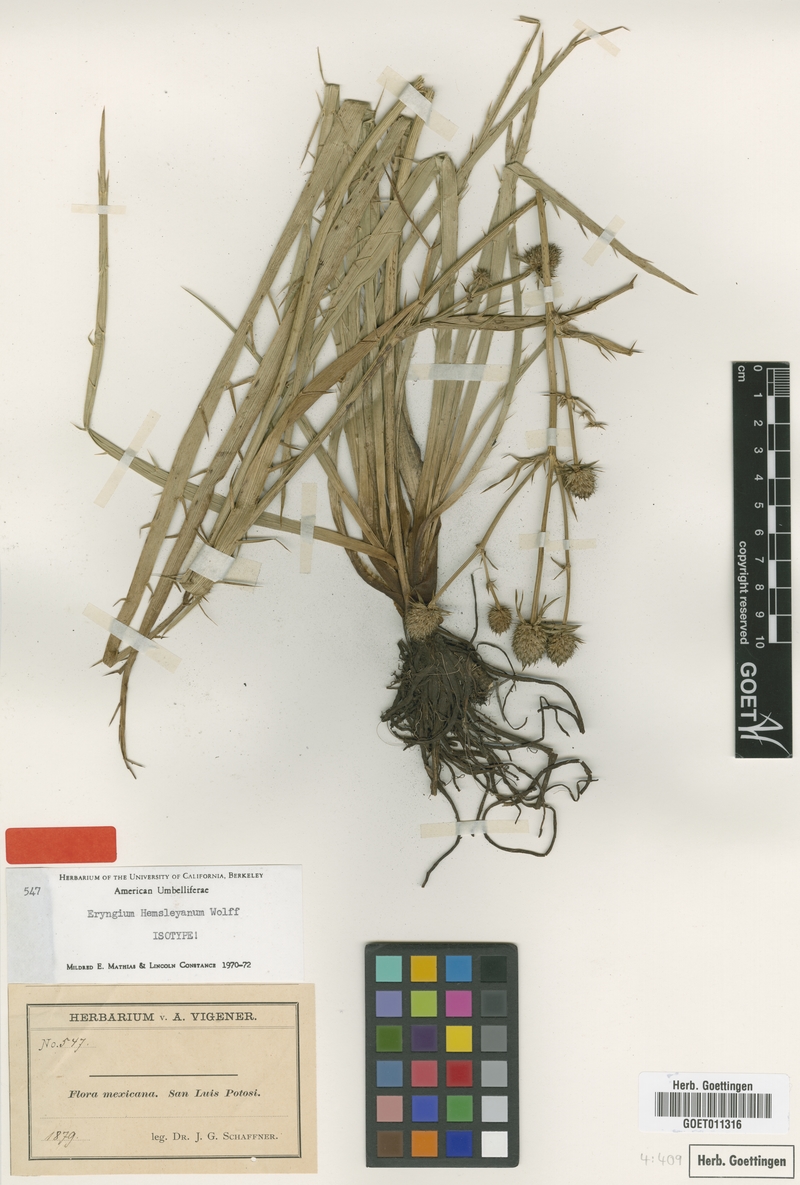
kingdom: Plantae
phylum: Tracheophyta
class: Magnoliopsida
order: Apiales
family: Apiaceae
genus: Eryngium
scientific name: Eryngium hemsleyanum
